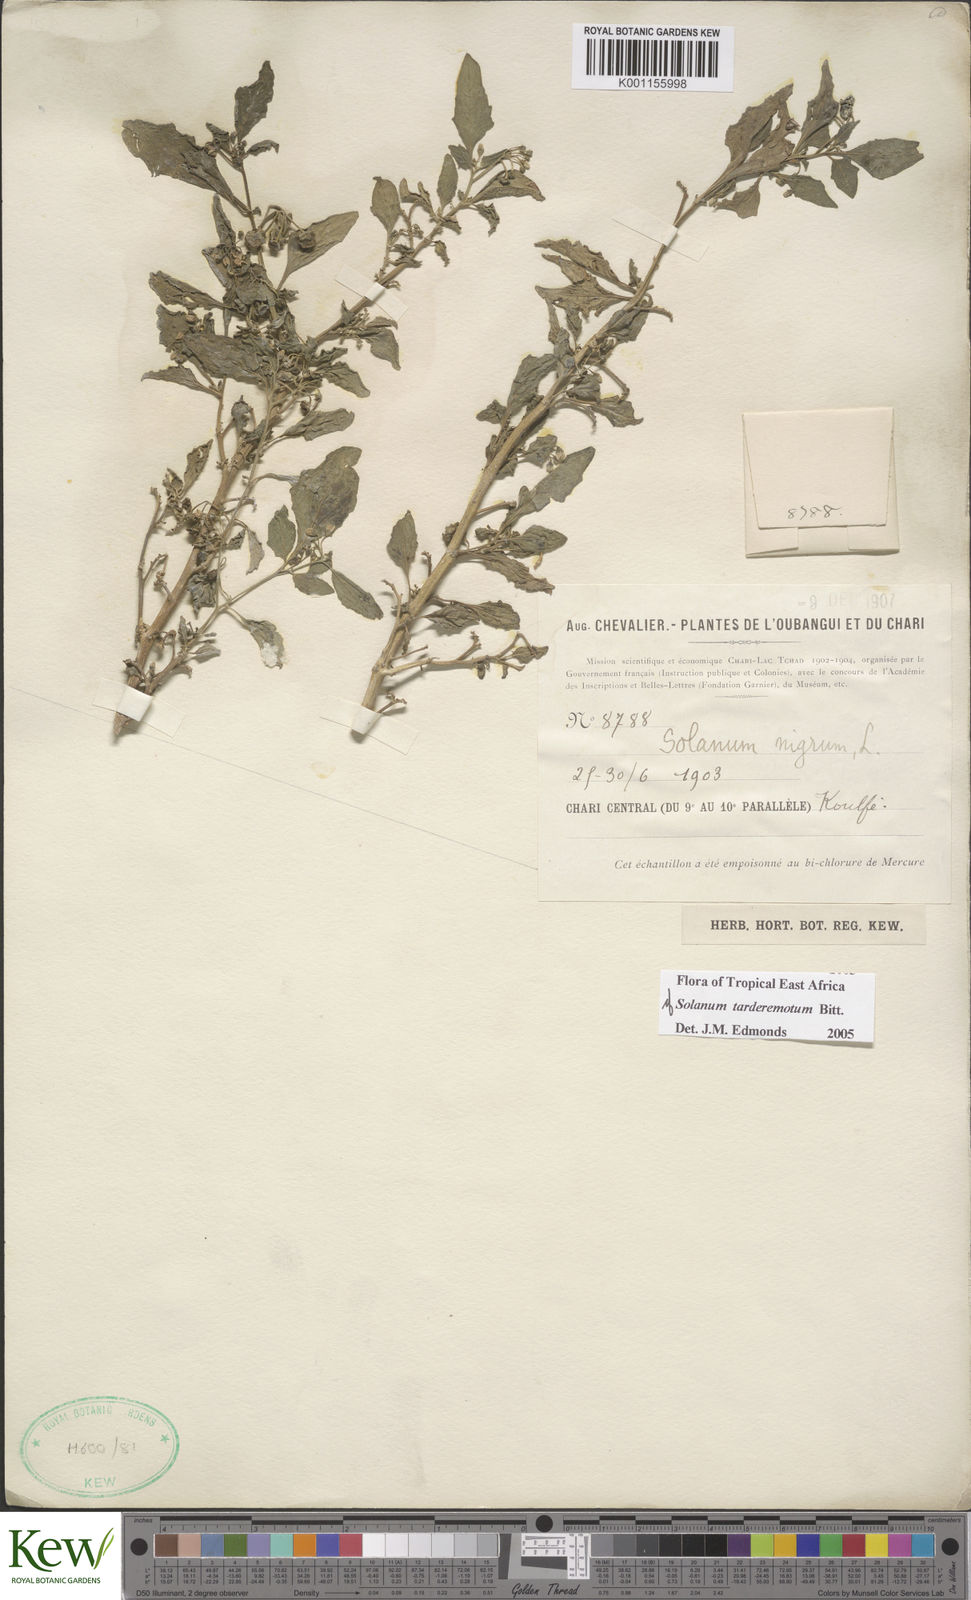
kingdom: Plantae
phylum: Tracheophyta
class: Magnoliopsida
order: Solanales
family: Solanaceae
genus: Solanum
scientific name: Solanum tarderemotum
